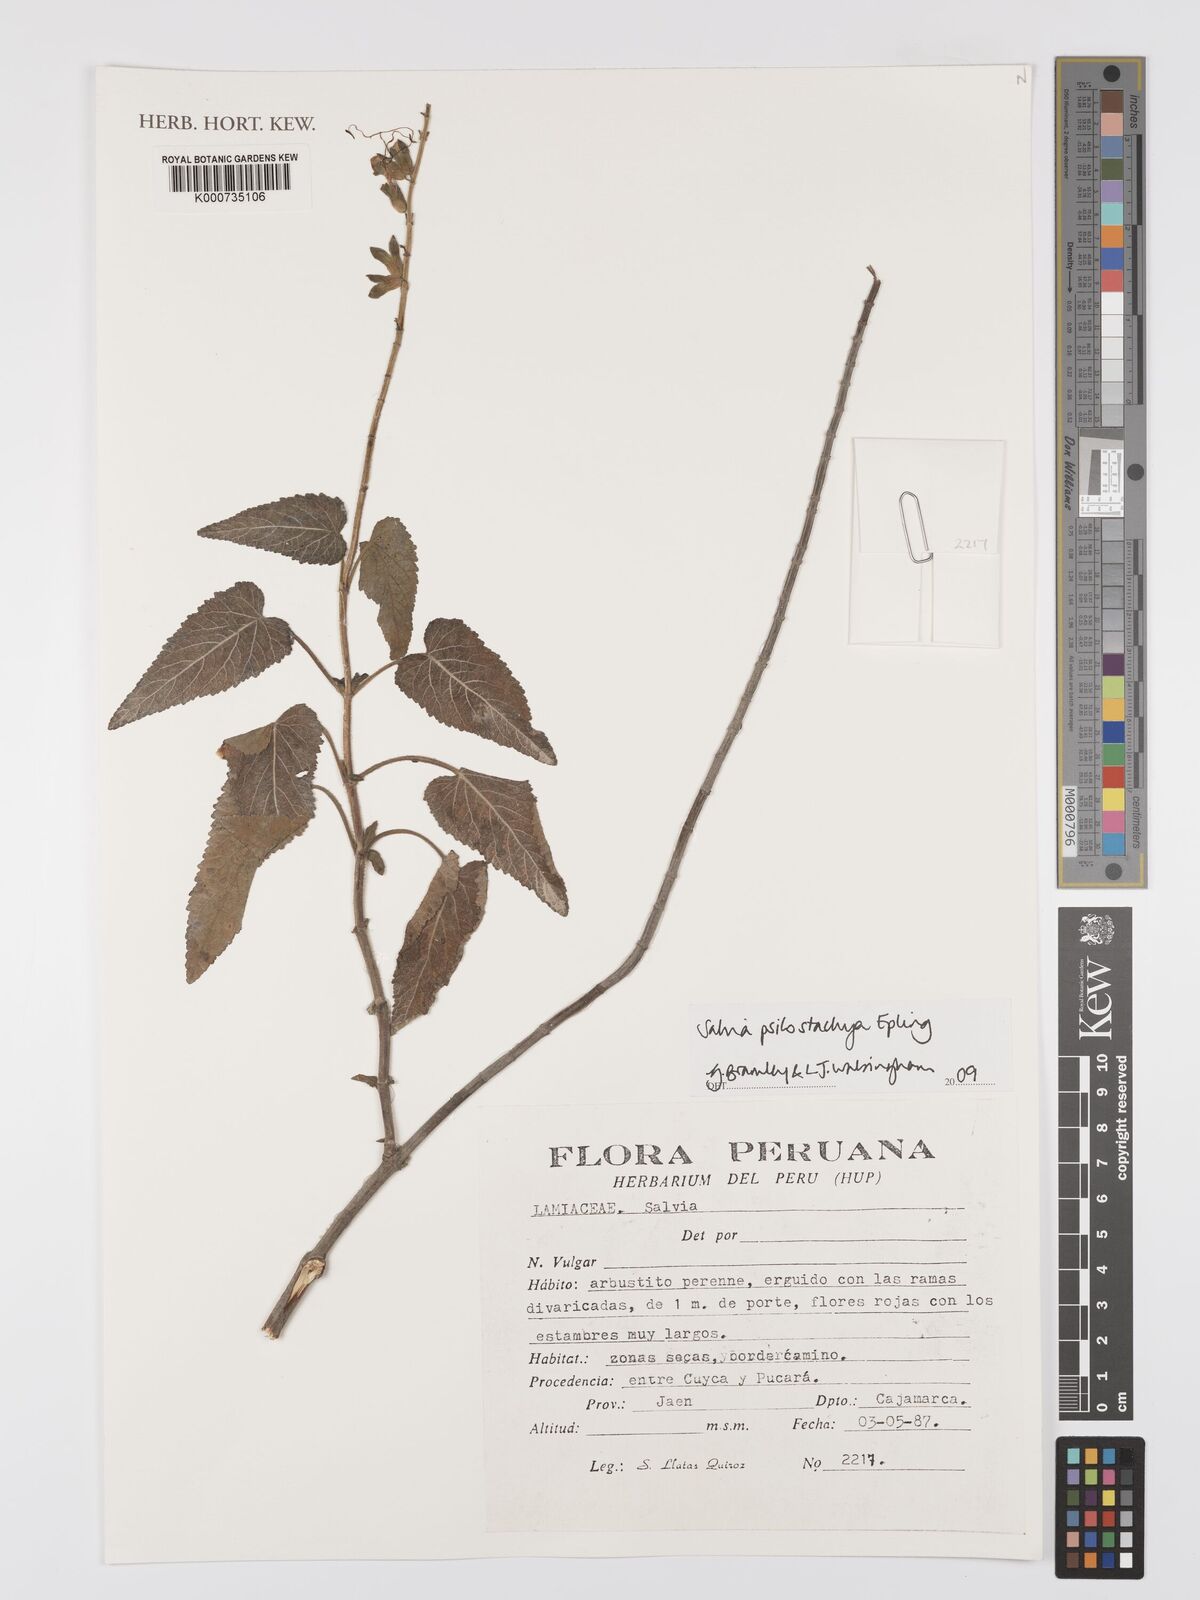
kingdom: Plantae
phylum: Tracheophyta
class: Magnoliopsida
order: Lamiales
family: Lamiaceae
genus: Salvia
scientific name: Salvia psilostachya
